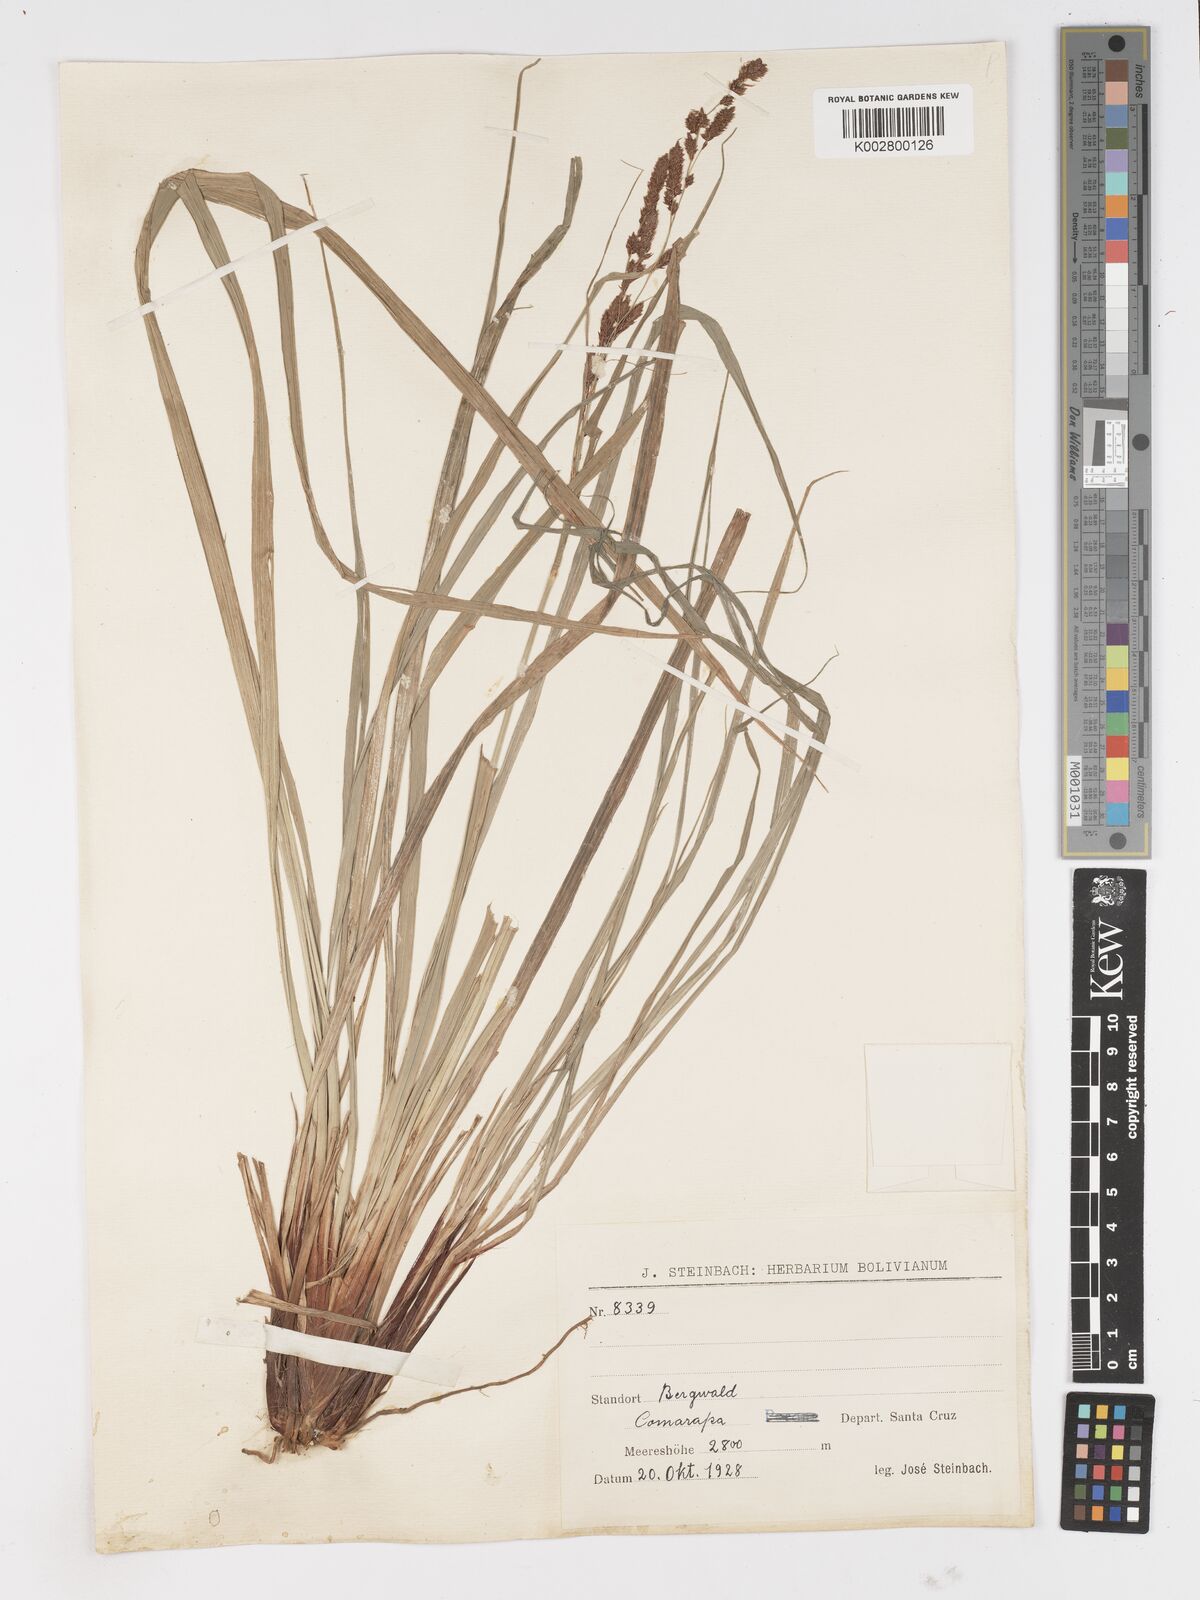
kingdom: Plantae
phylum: Tracheophyta
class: Liliopsida
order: Poales
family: Cyperaceae
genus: Carex
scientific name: Carex fecunda
